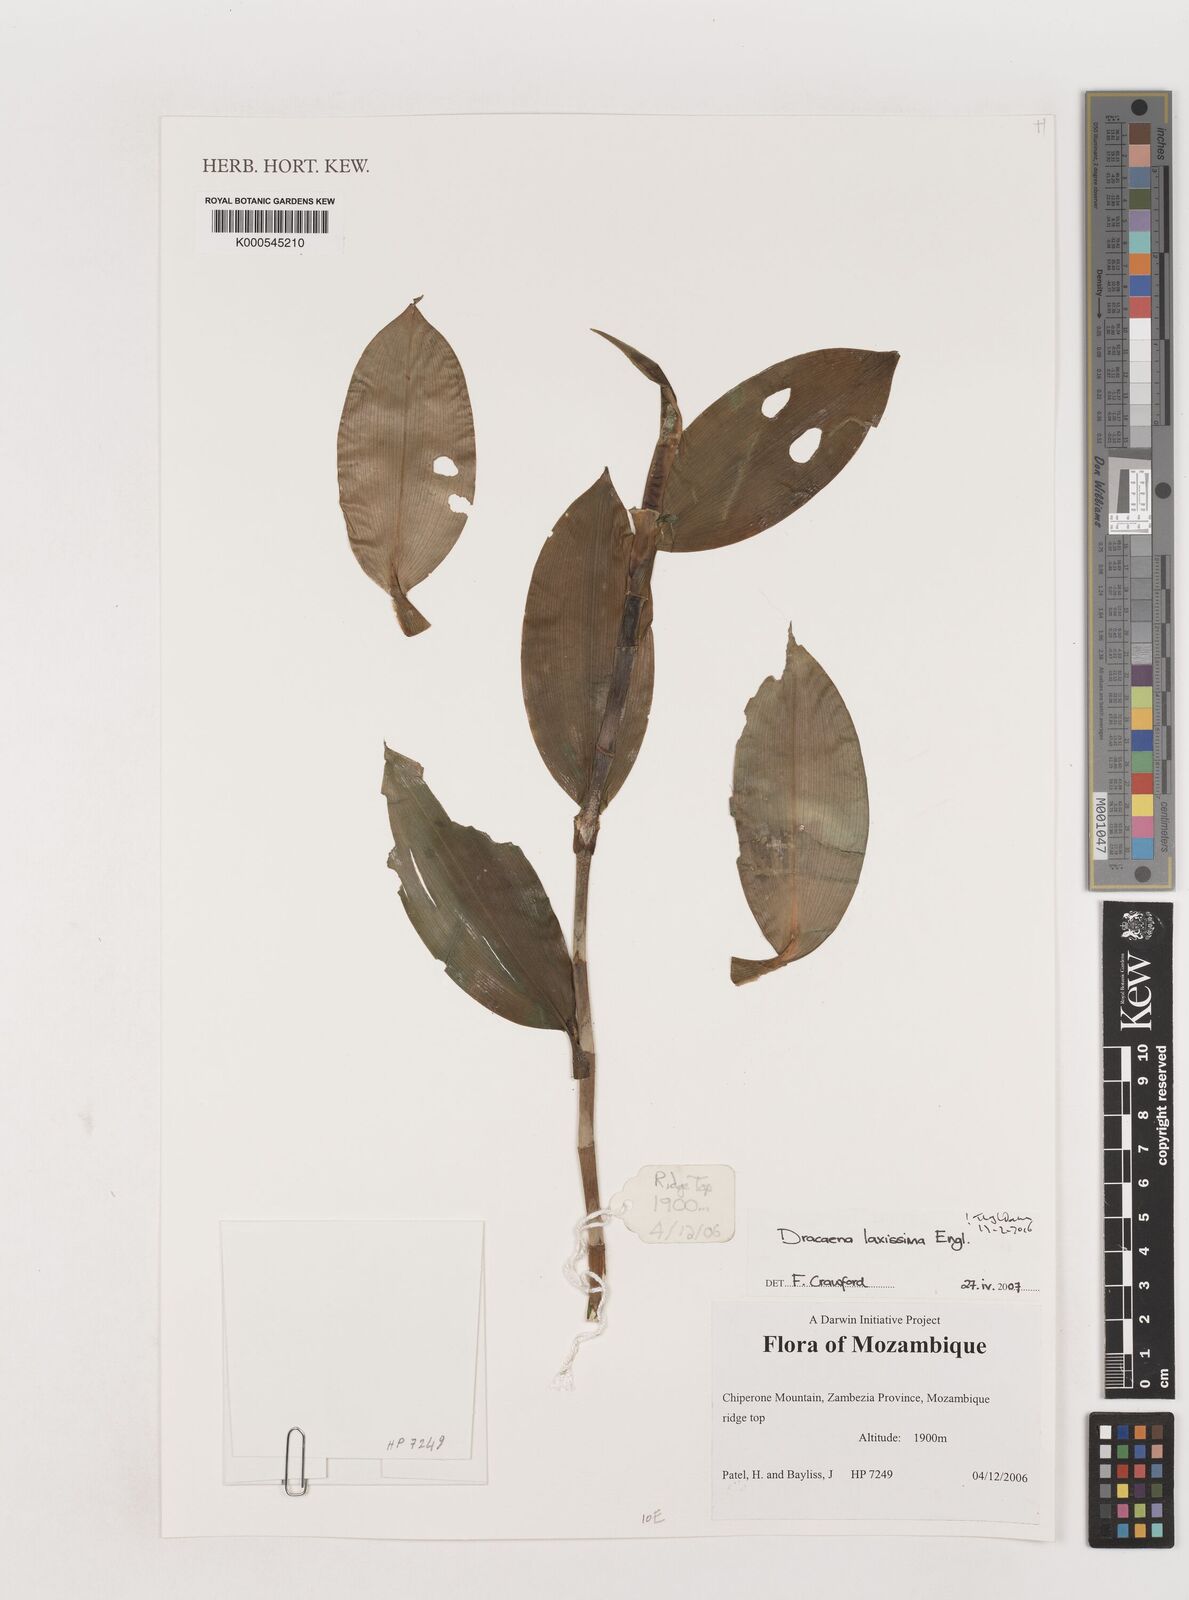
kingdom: Plantae
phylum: Tracheophyta
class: Liliopsida
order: Asparagales
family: Asparagaceae
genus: Dracaena
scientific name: Dracaena laxissima
